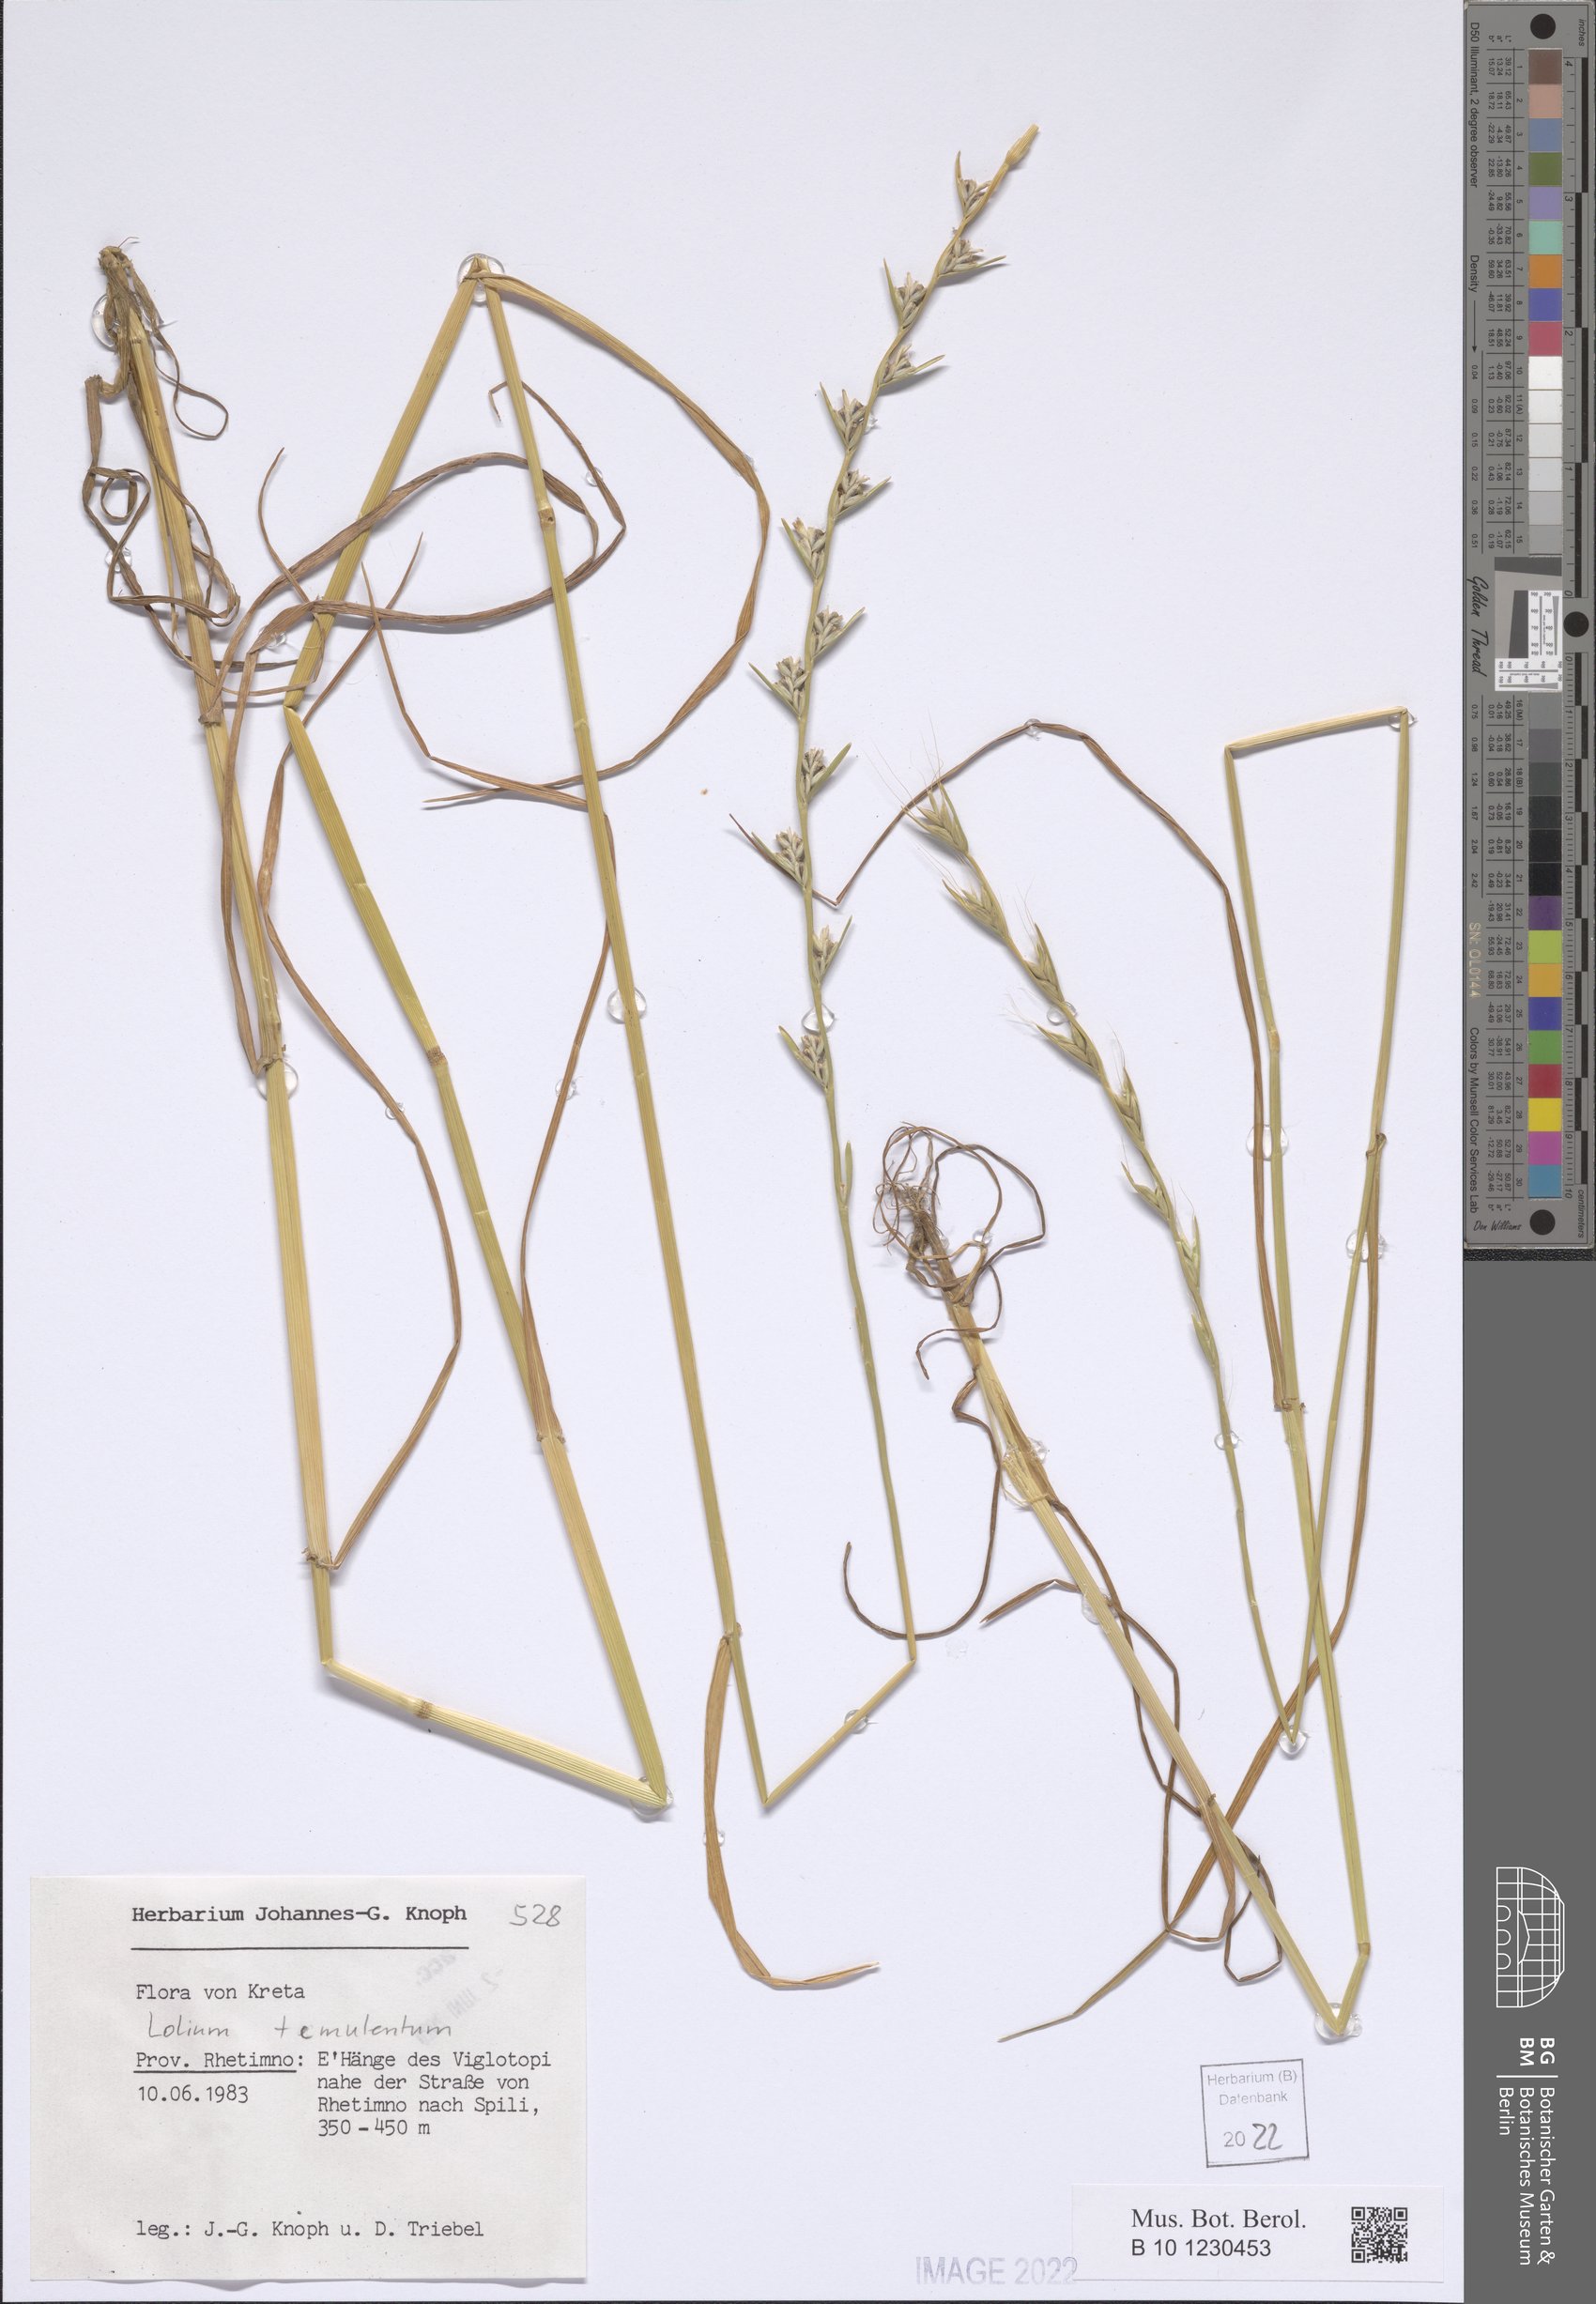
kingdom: Plantae
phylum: Tracheophyta
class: Liliopsida
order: Poales
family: Poaceae
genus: Lolium
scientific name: Lolium temulentum
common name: Darnel
